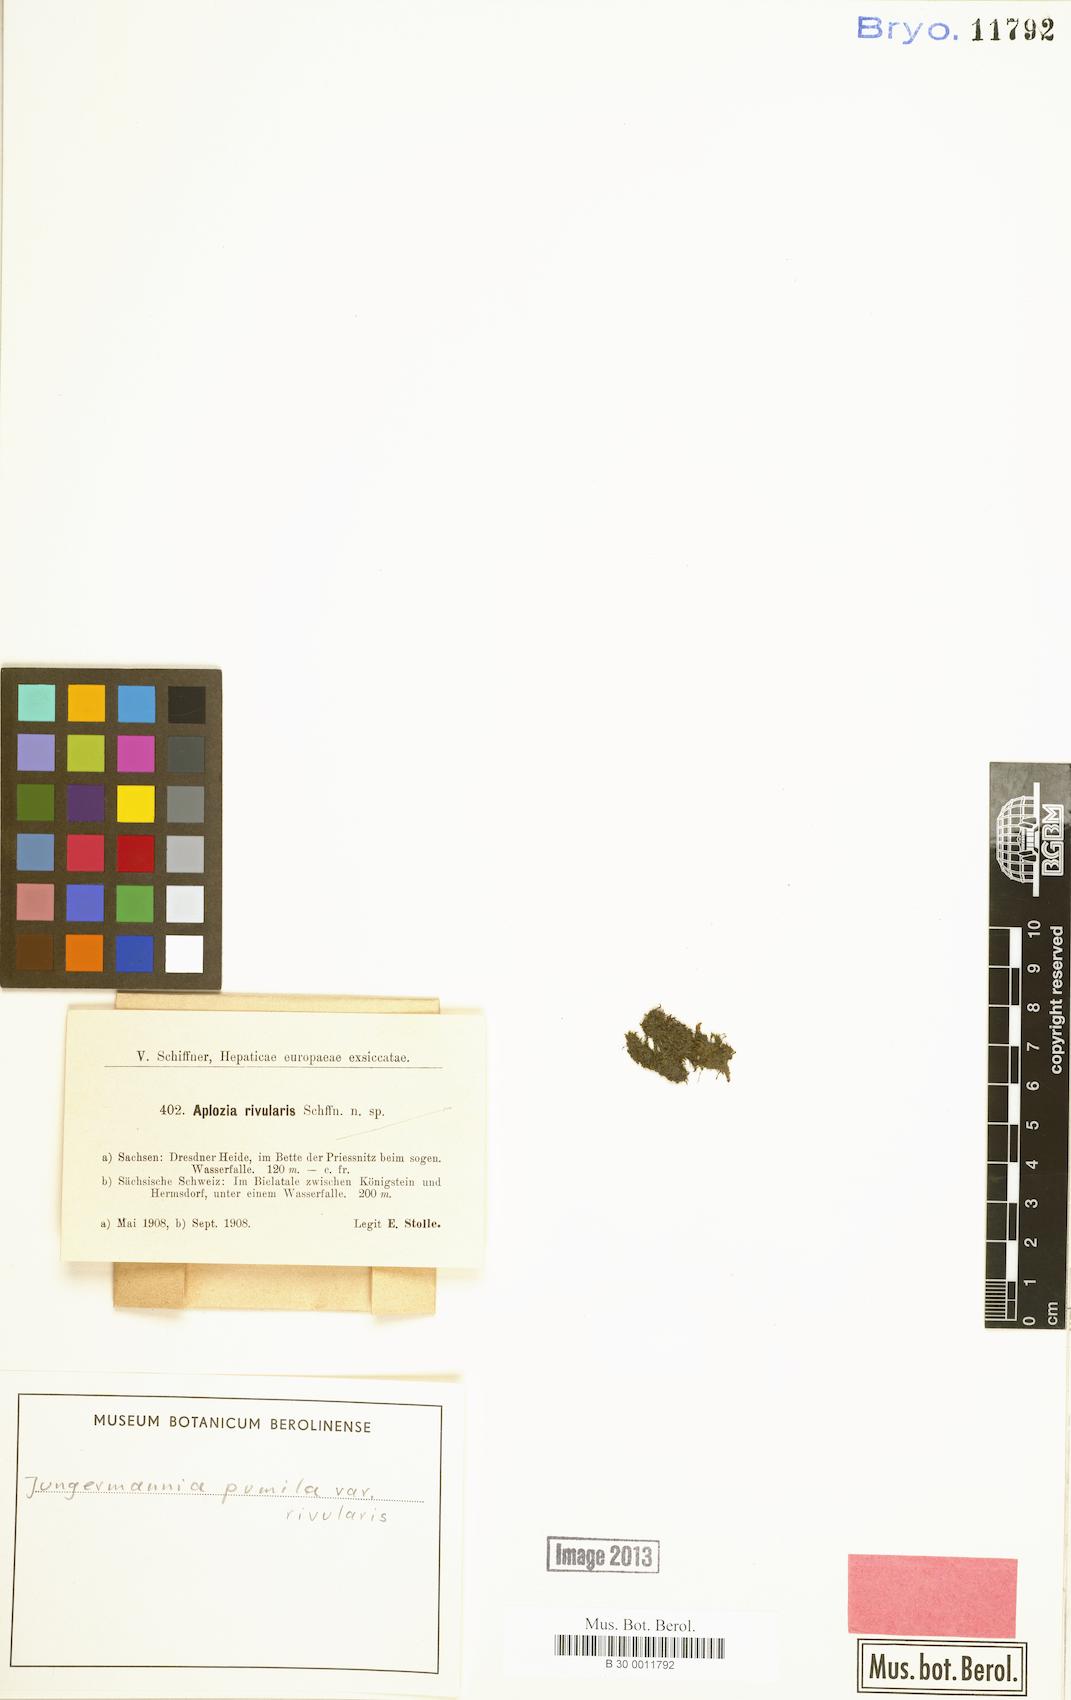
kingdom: Plantae
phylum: Marchantiophyta
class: Jungermanniopsida
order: Jungermanniales
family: Jungermanniaceae
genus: Jungermannia
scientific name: Jungermannia pumila
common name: Dwarf flapwort
